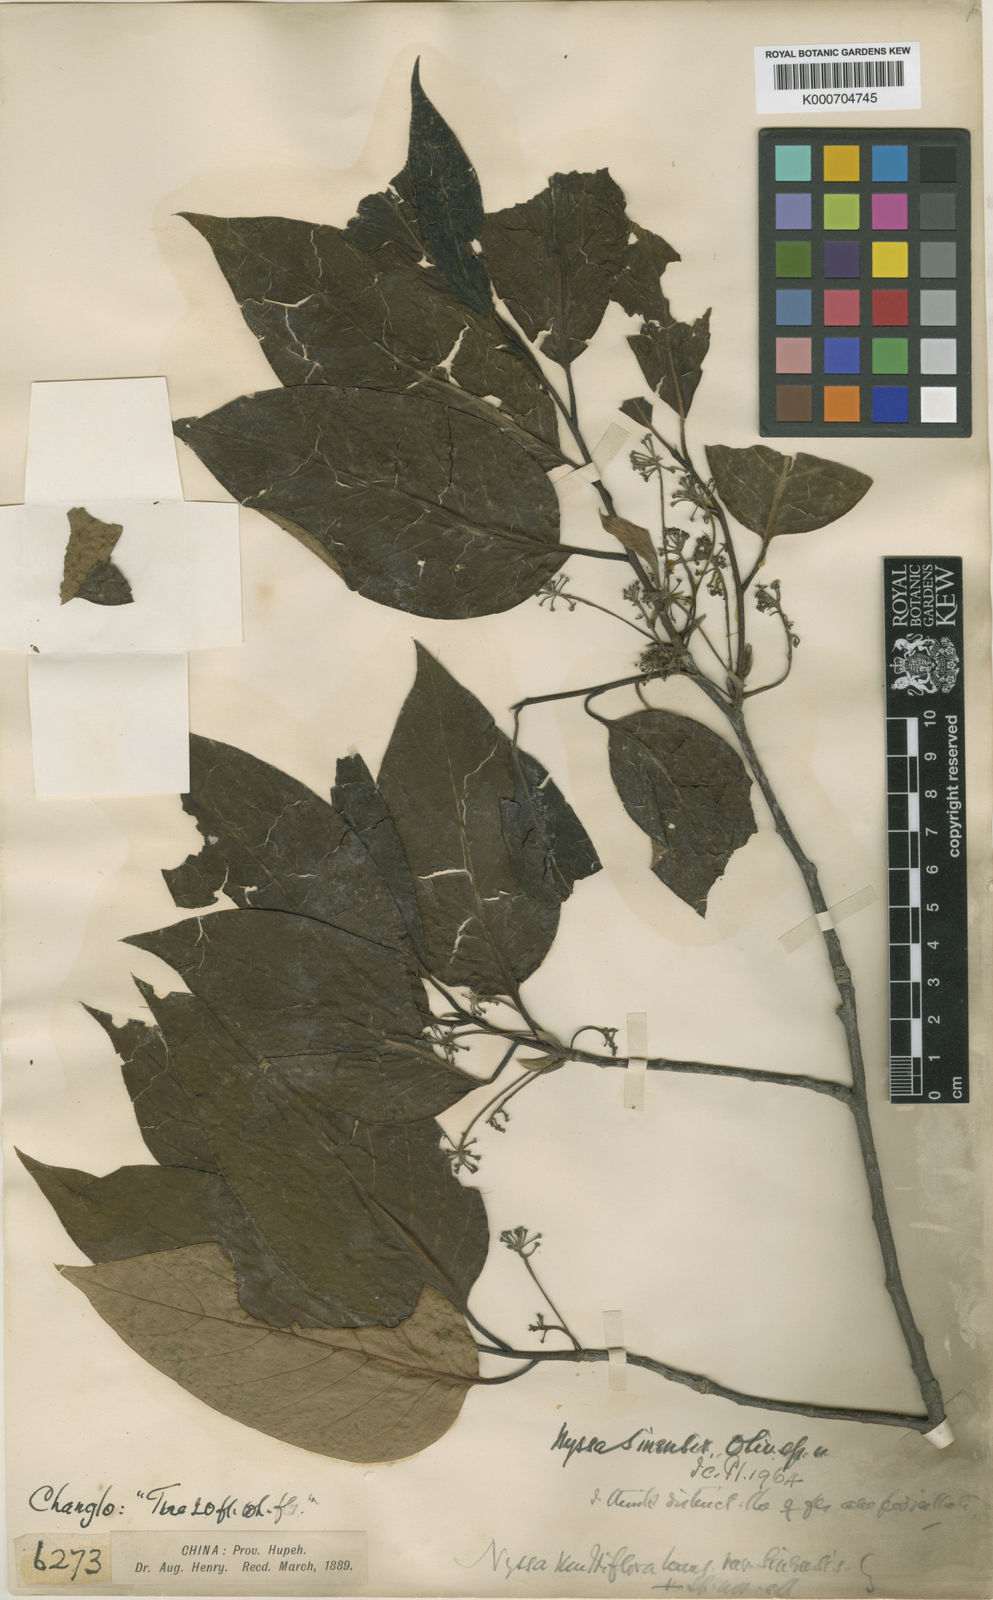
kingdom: Plantae
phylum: Tracheophyta
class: Magnoliopsida
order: Cornales
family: Nyssaceae
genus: Nyssa
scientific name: Nyssa sinensis
